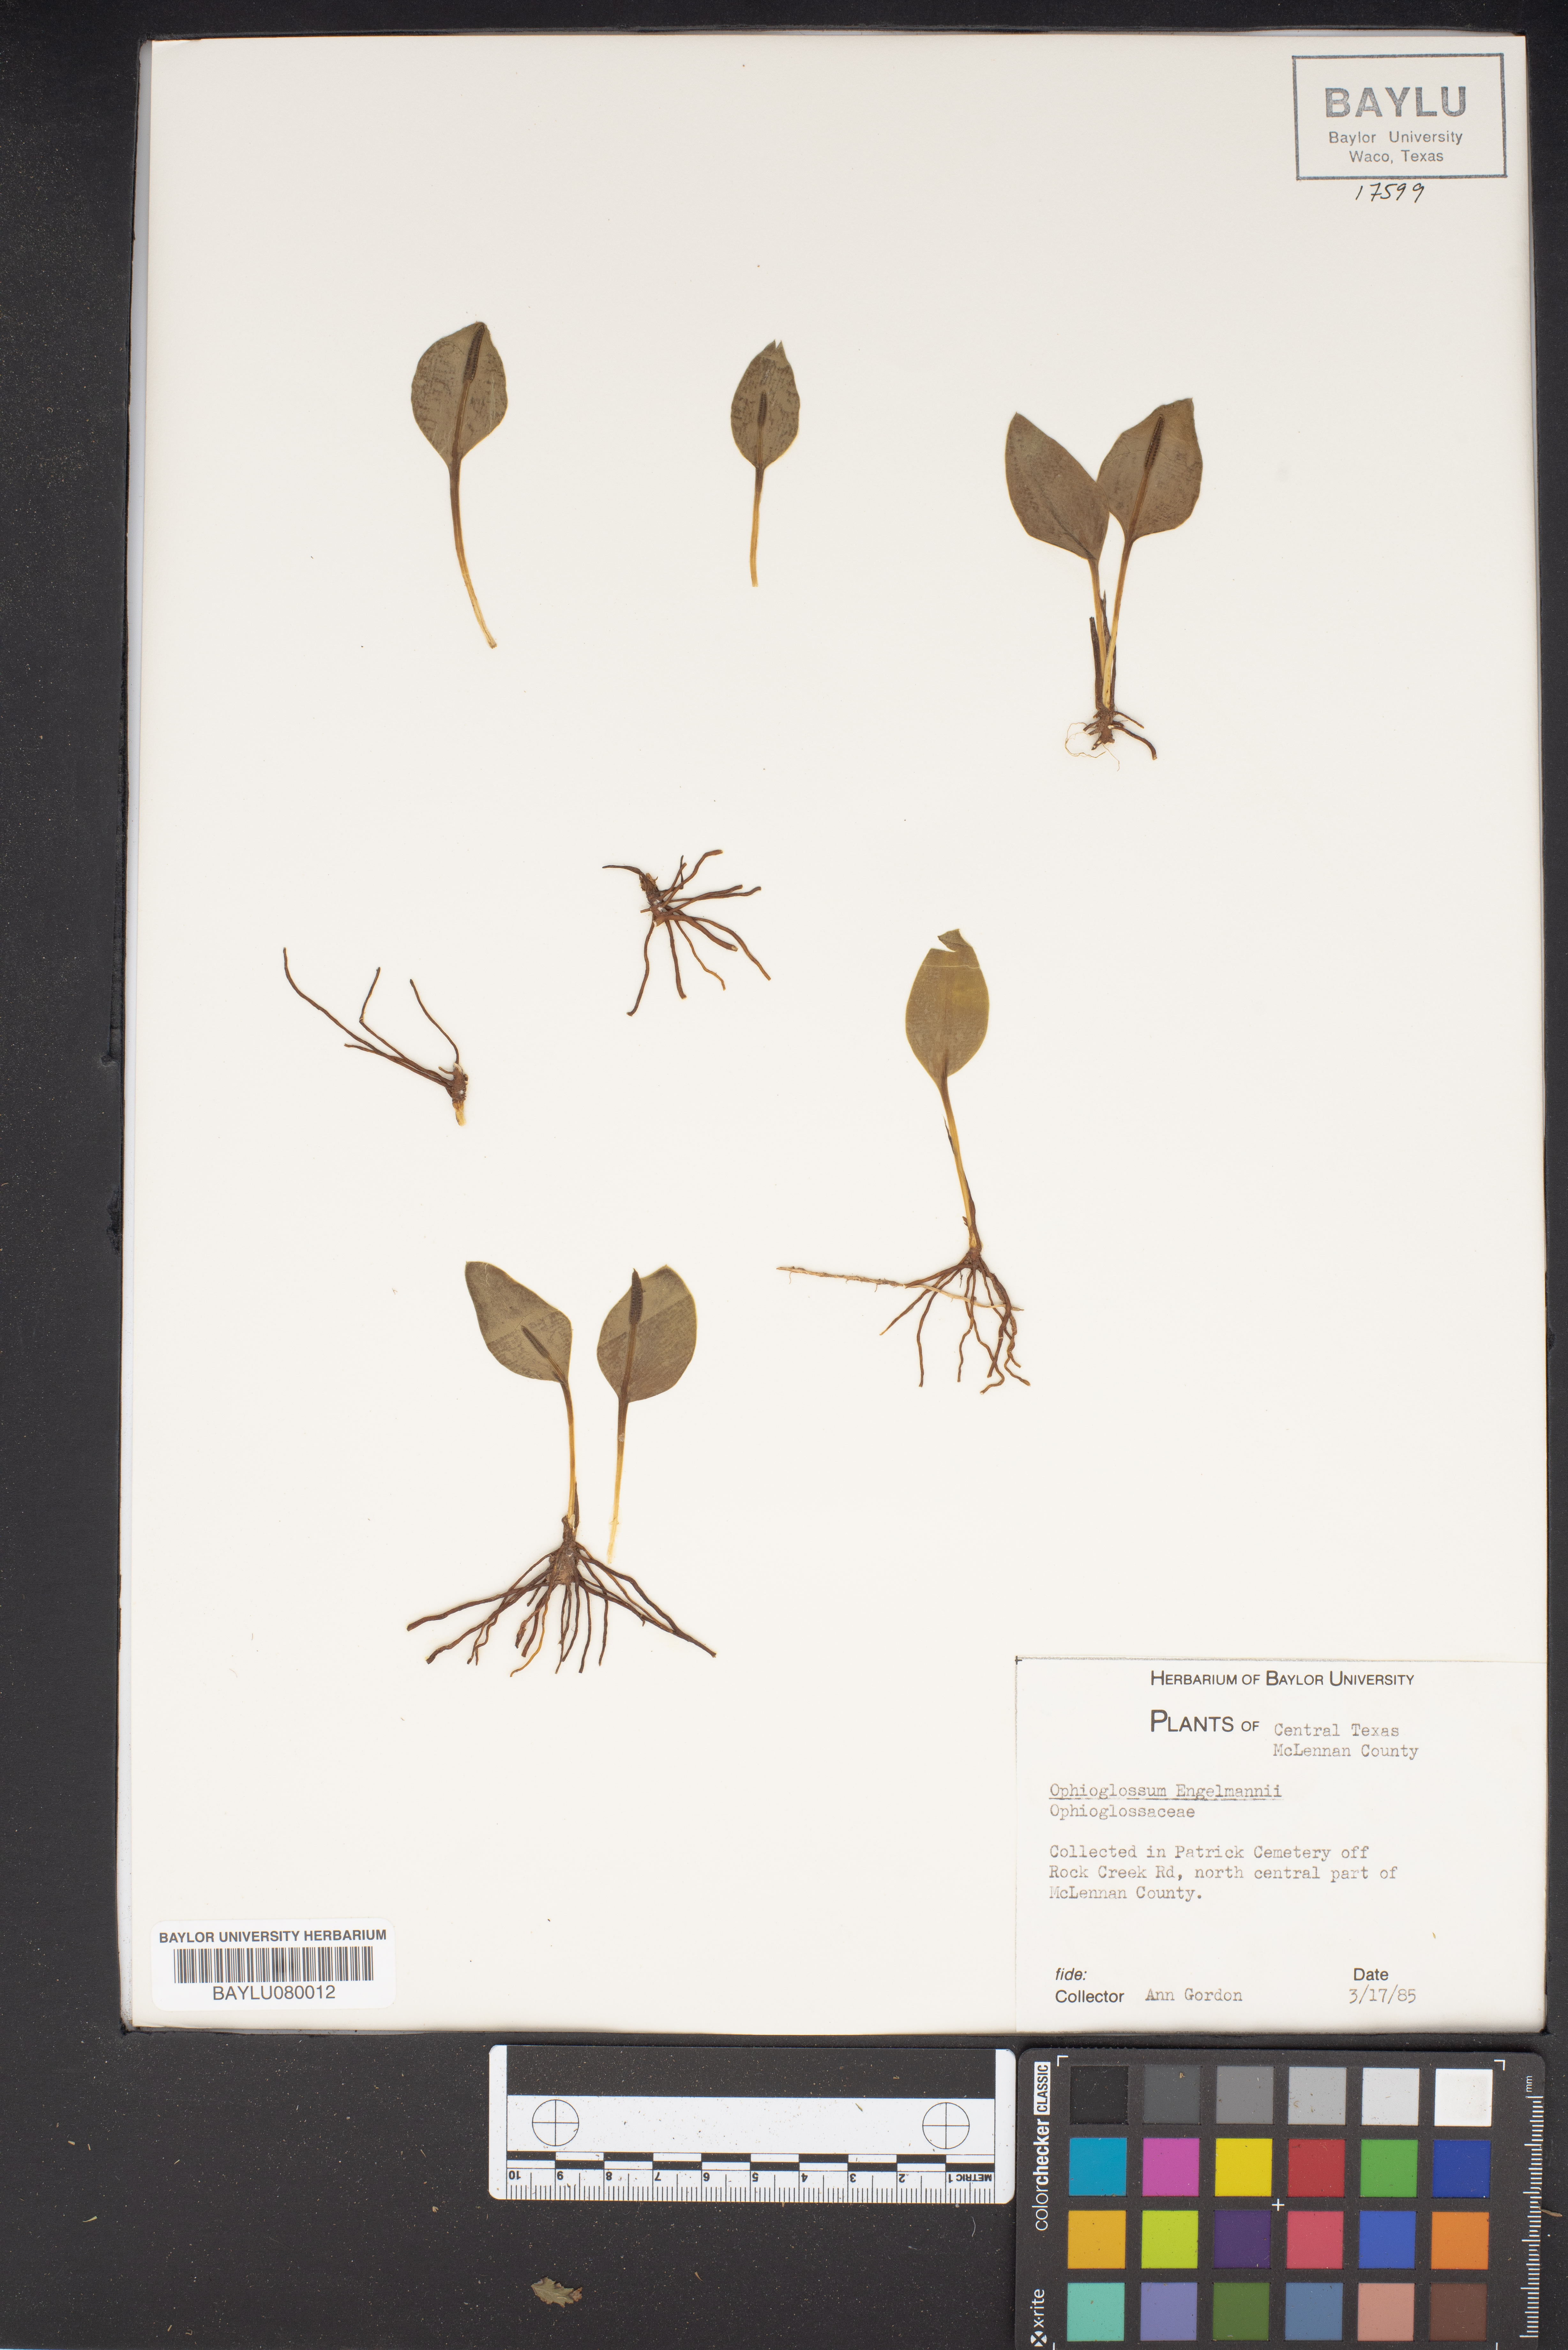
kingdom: Plantae
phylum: Tracheophyta
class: Polypodiopsida
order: Ophioglossales
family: Ophioglossaceae
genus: Ophioglossum
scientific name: Ophioglossum engelmannii
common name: Limestone adder's-tongue
